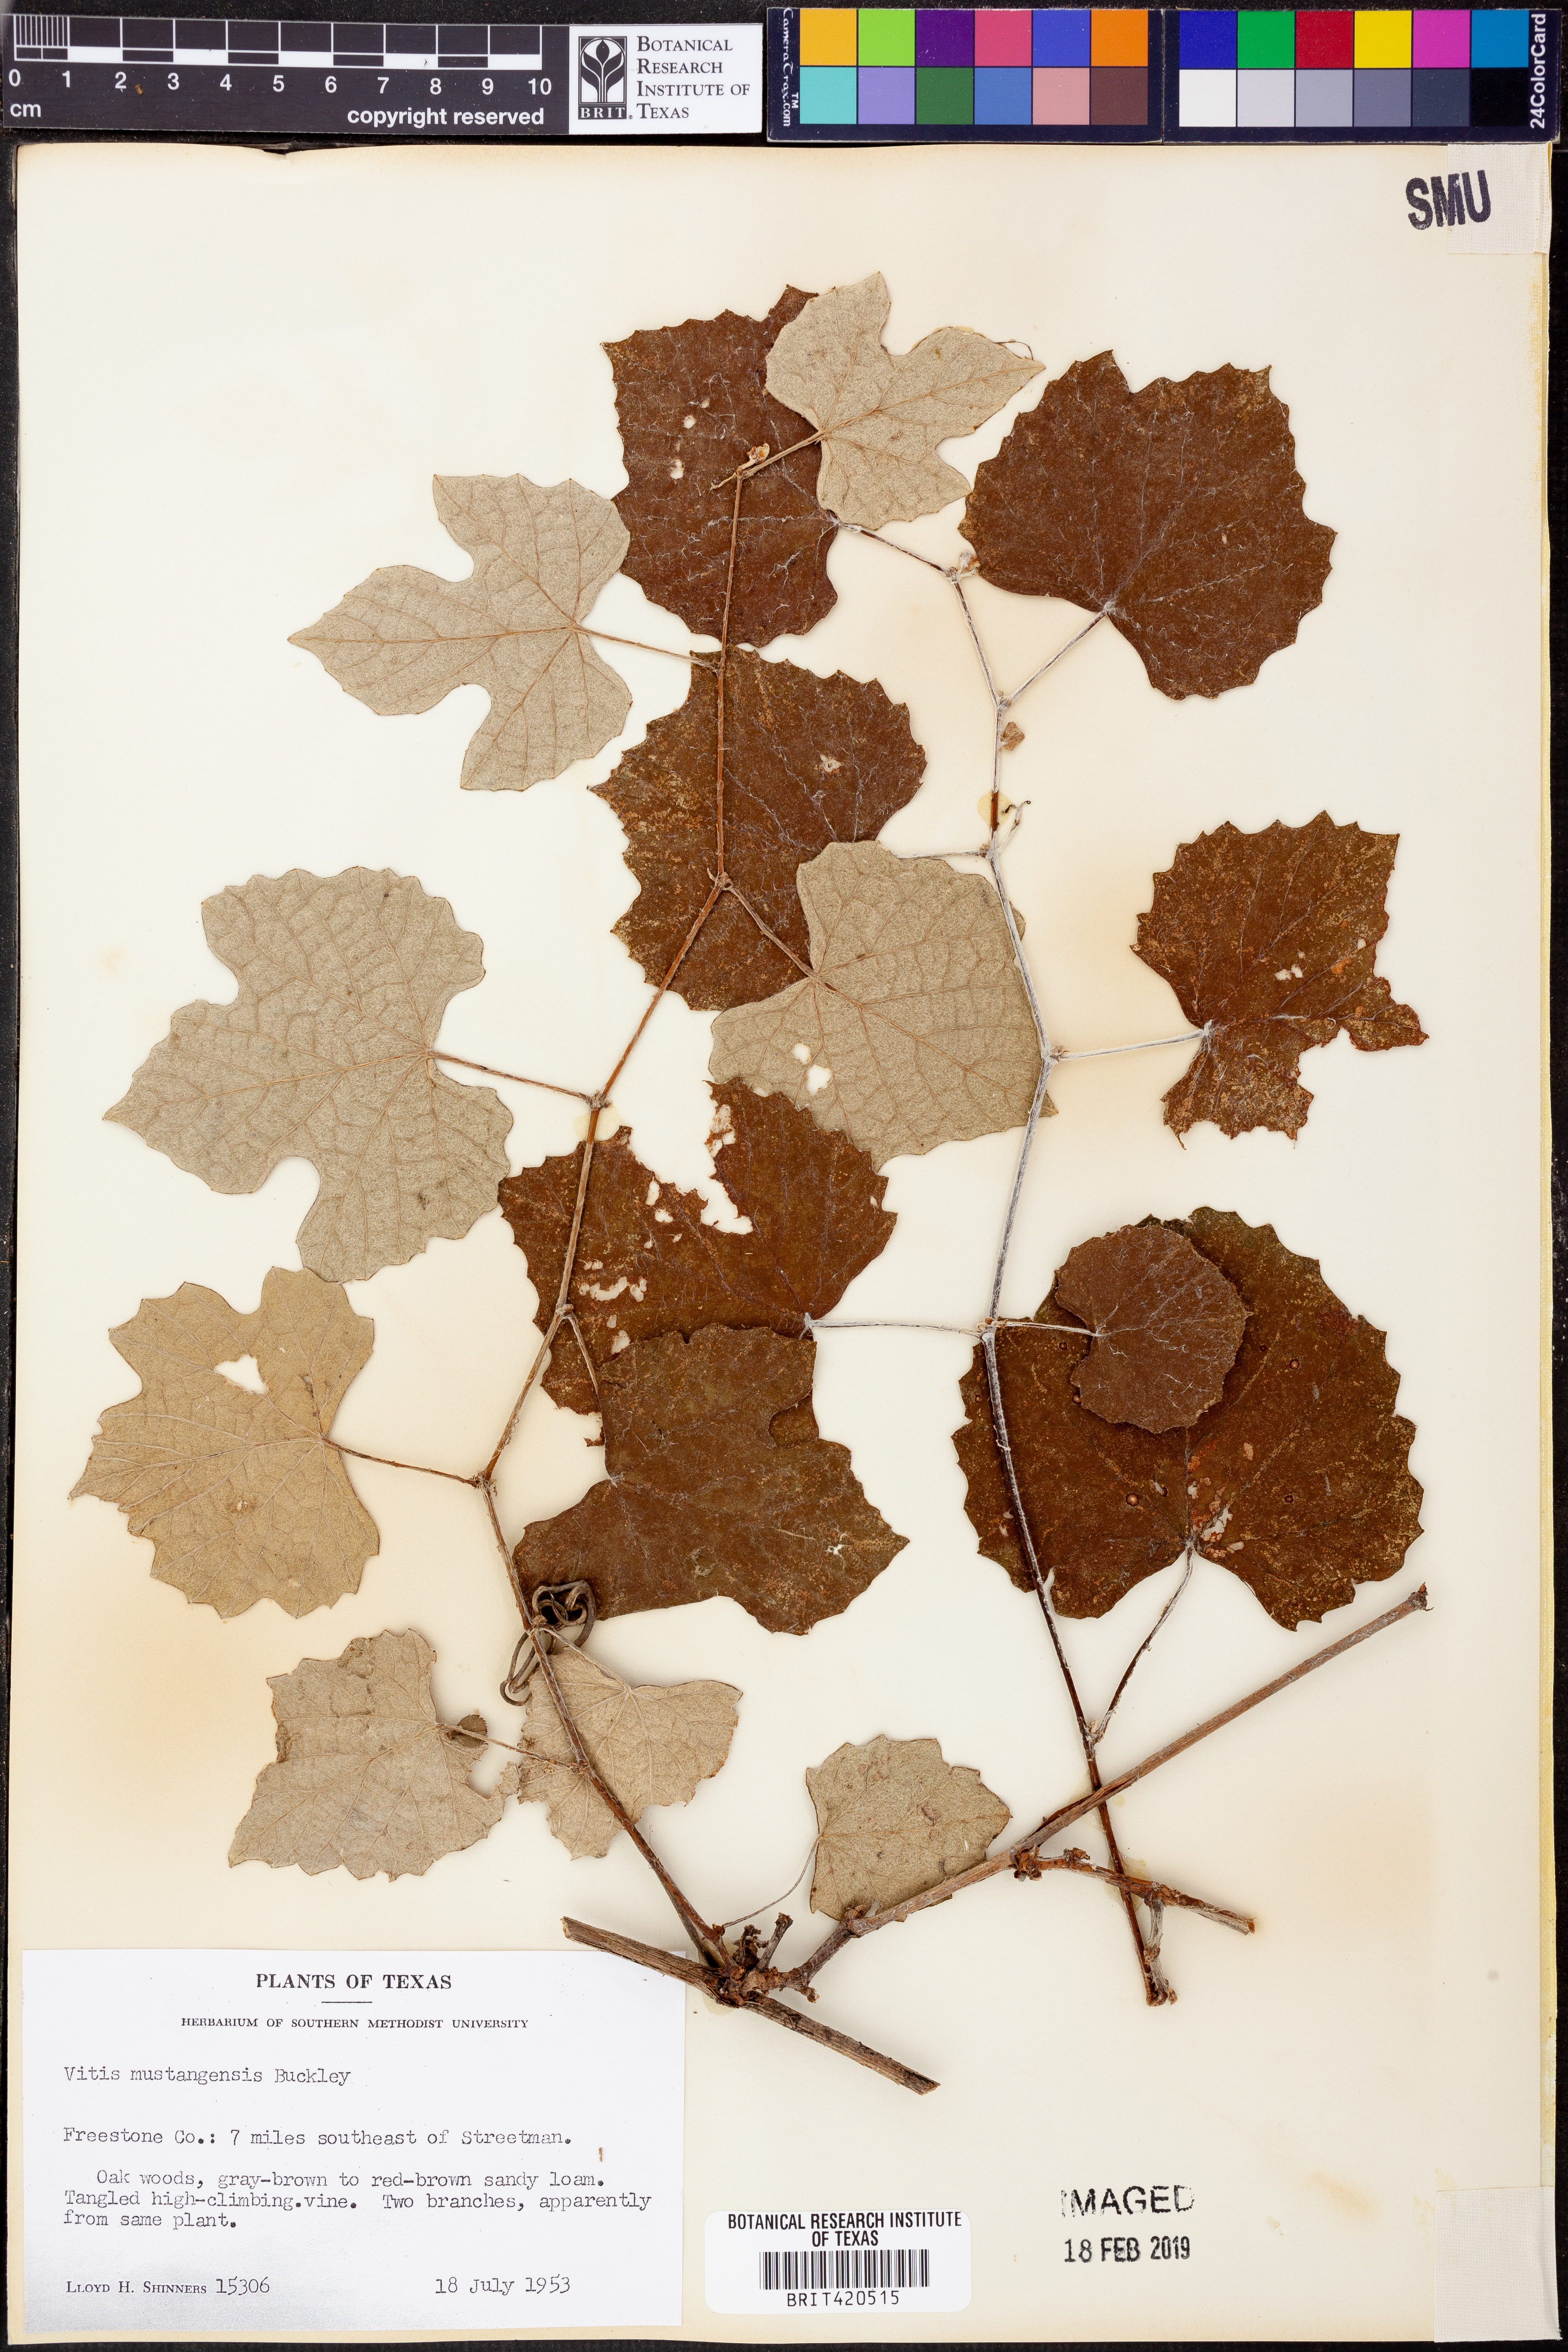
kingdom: Plantae
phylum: Tracheophyta
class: Magnoliopsida
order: Vitales
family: Vitaceae
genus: Vitis
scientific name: Vitis mustangensis
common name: Mustang grape
